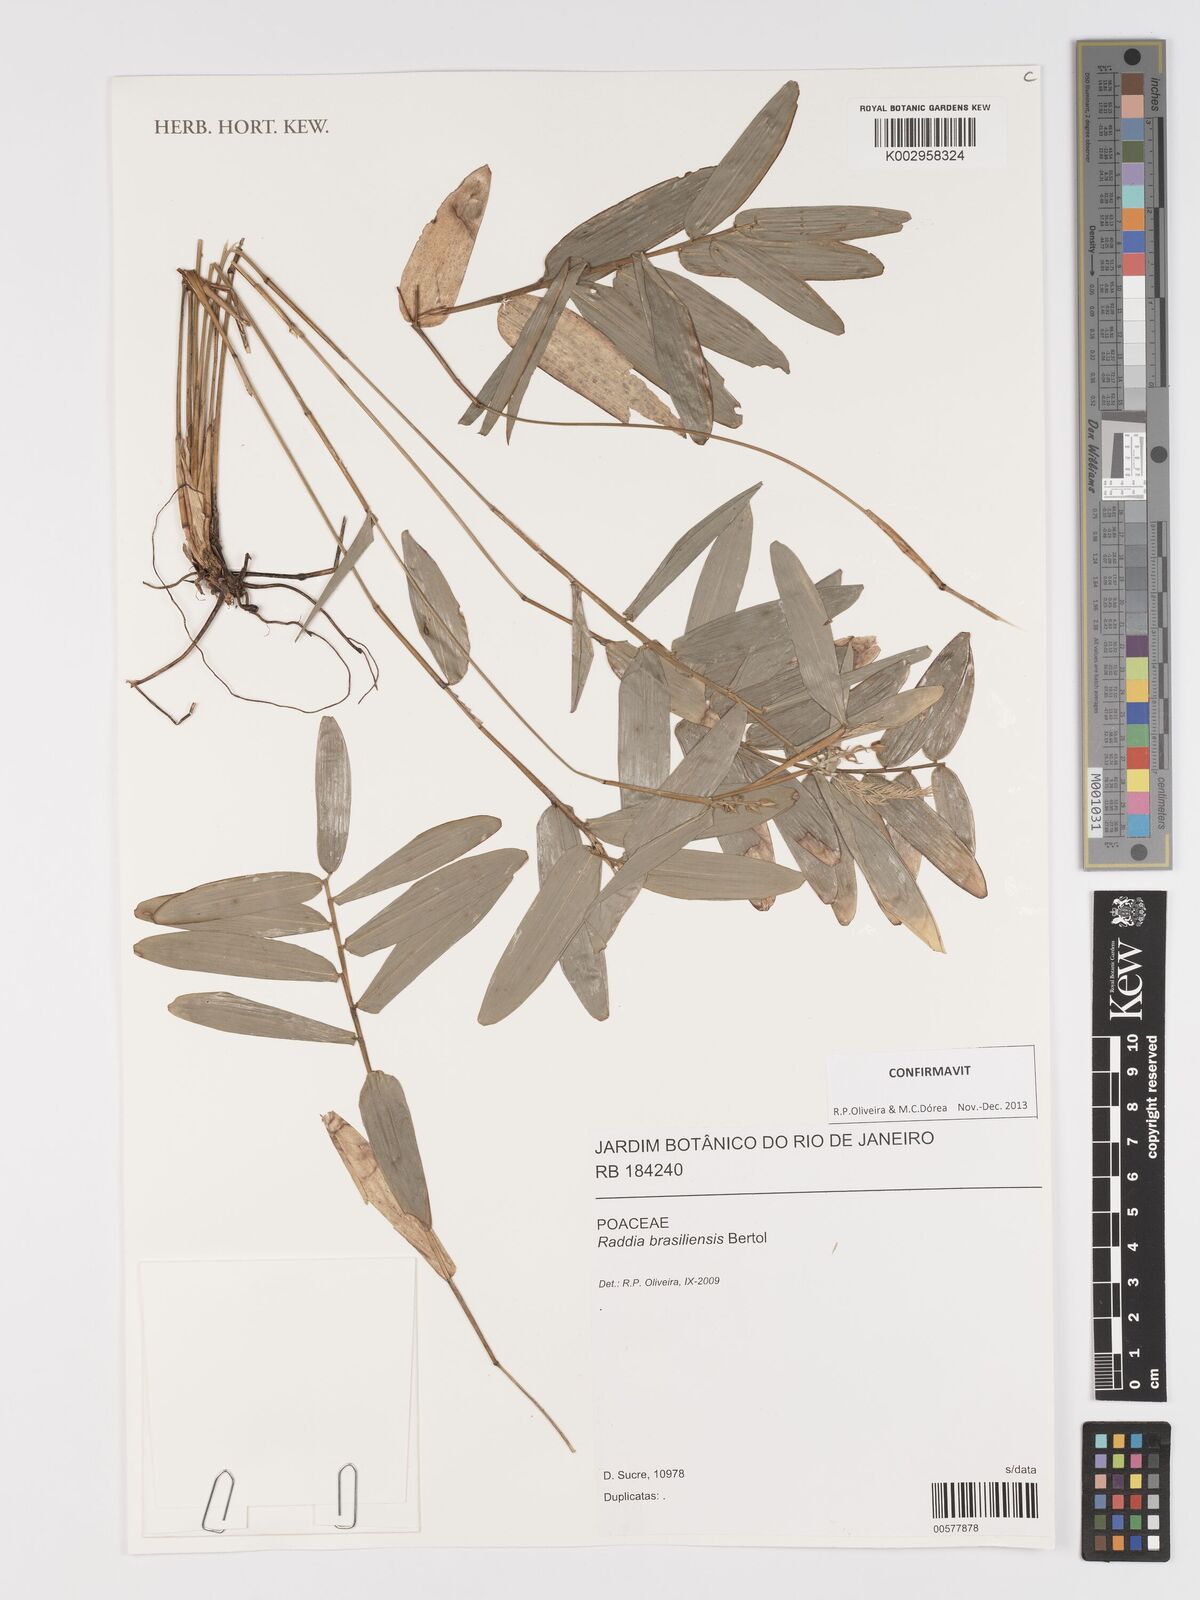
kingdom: Plantae
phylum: Tracheophyta
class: Liliopsida
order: Poales
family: Poaceae
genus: Raddia
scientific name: Raddia brasiliensis
